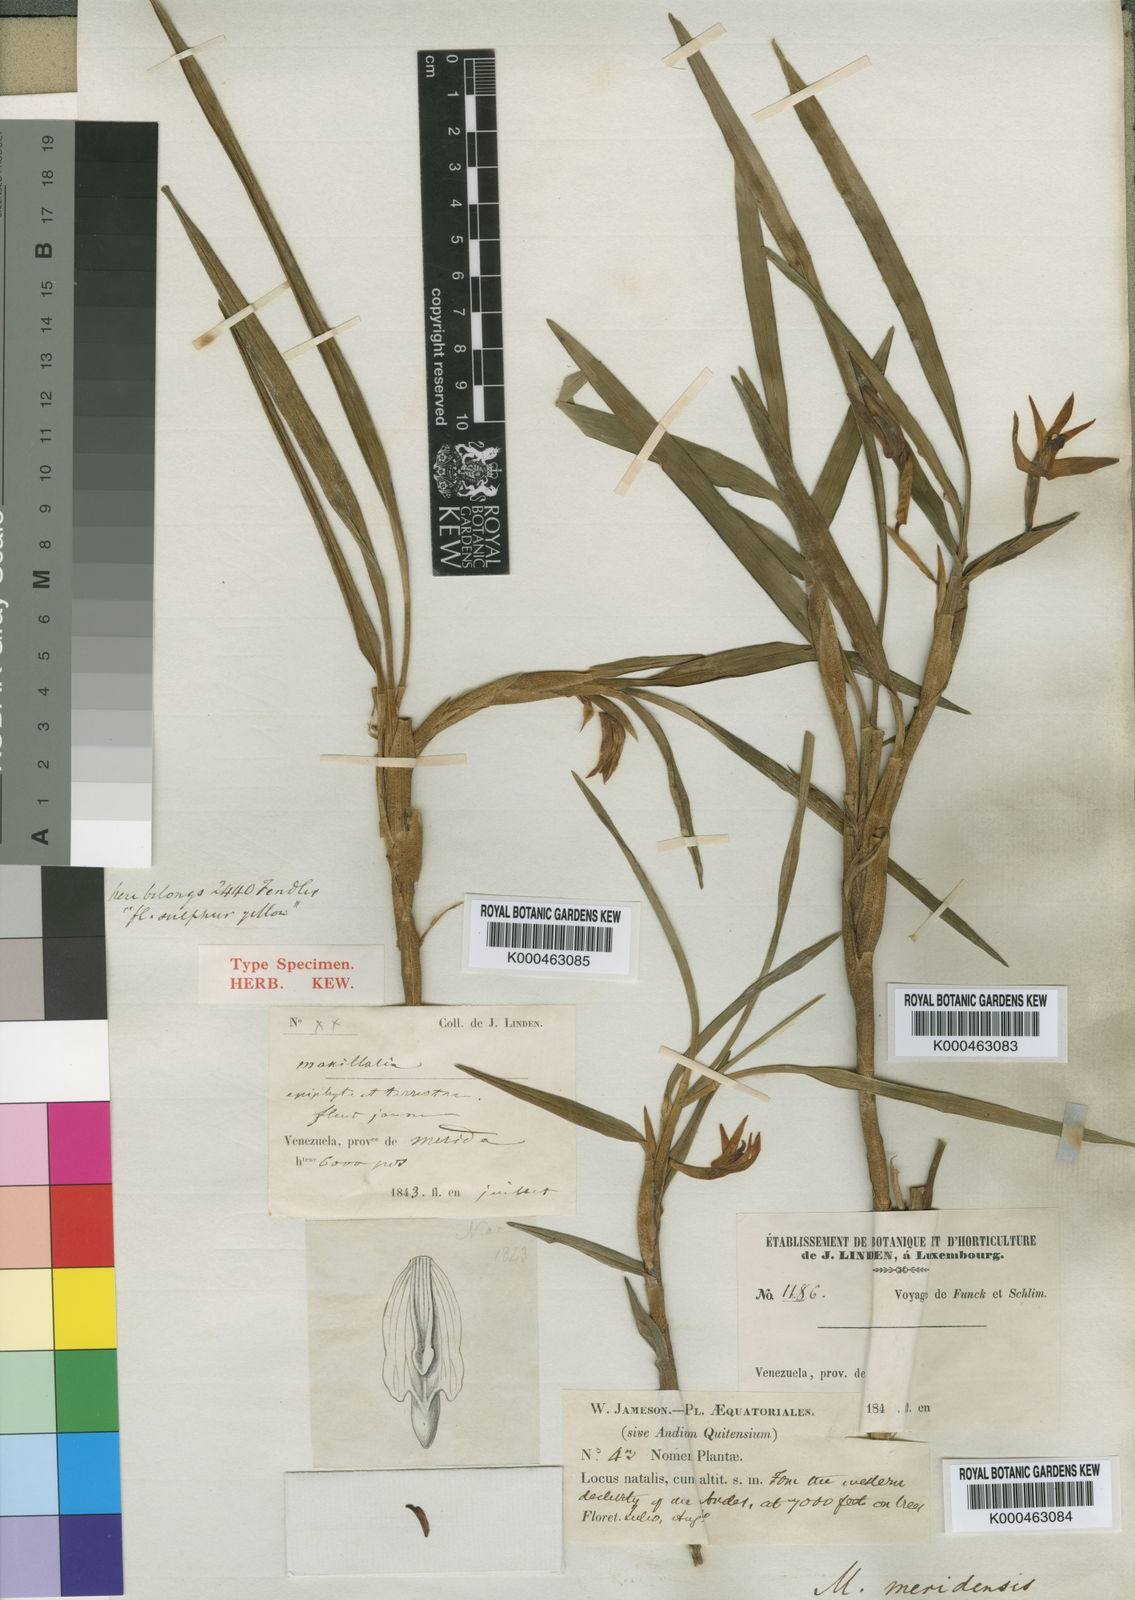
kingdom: Plantae
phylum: Tracheophyta
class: Liliopsida
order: Asparagales
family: Orchidaceae
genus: Maxillaria
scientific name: Maxillaria meridensis
